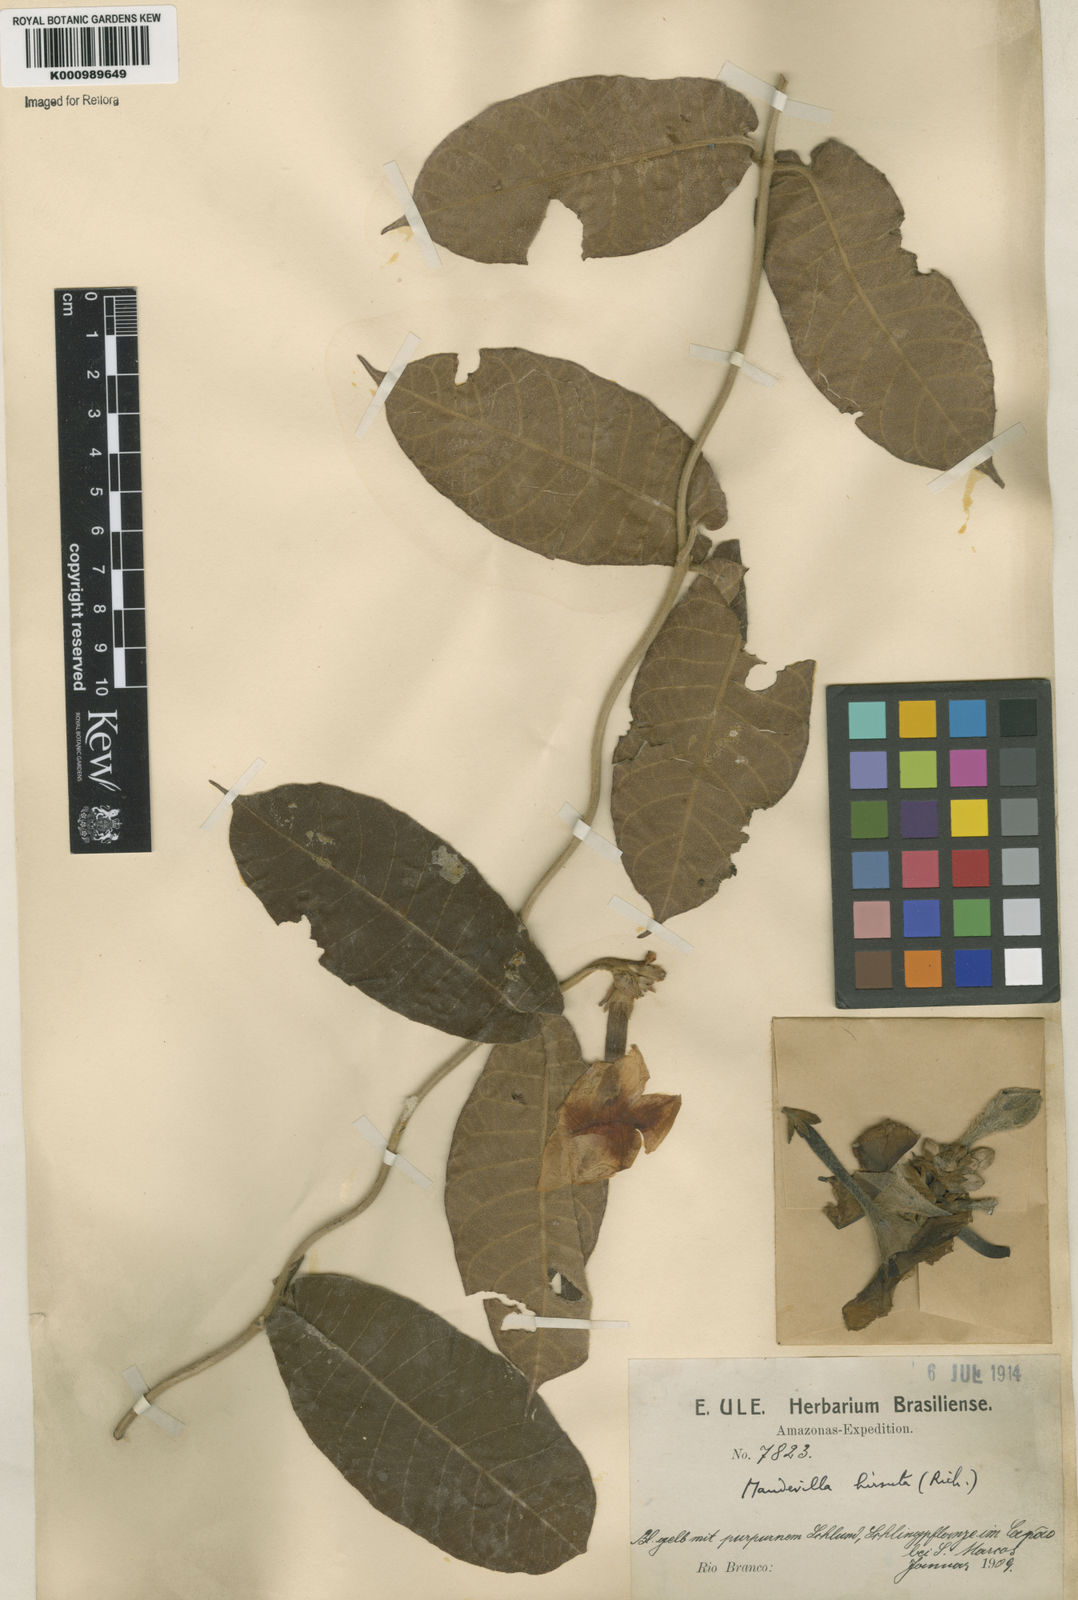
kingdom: Plantae
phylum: Tracheophyta
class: Magnoliopsida
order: Gentianales
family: Apocynaceae
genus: Mandevilla
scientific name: Mandevilla hirsuta
